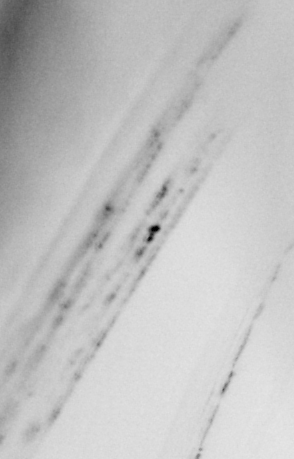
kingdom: Animalia
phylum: Chordata
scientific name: Chordata
